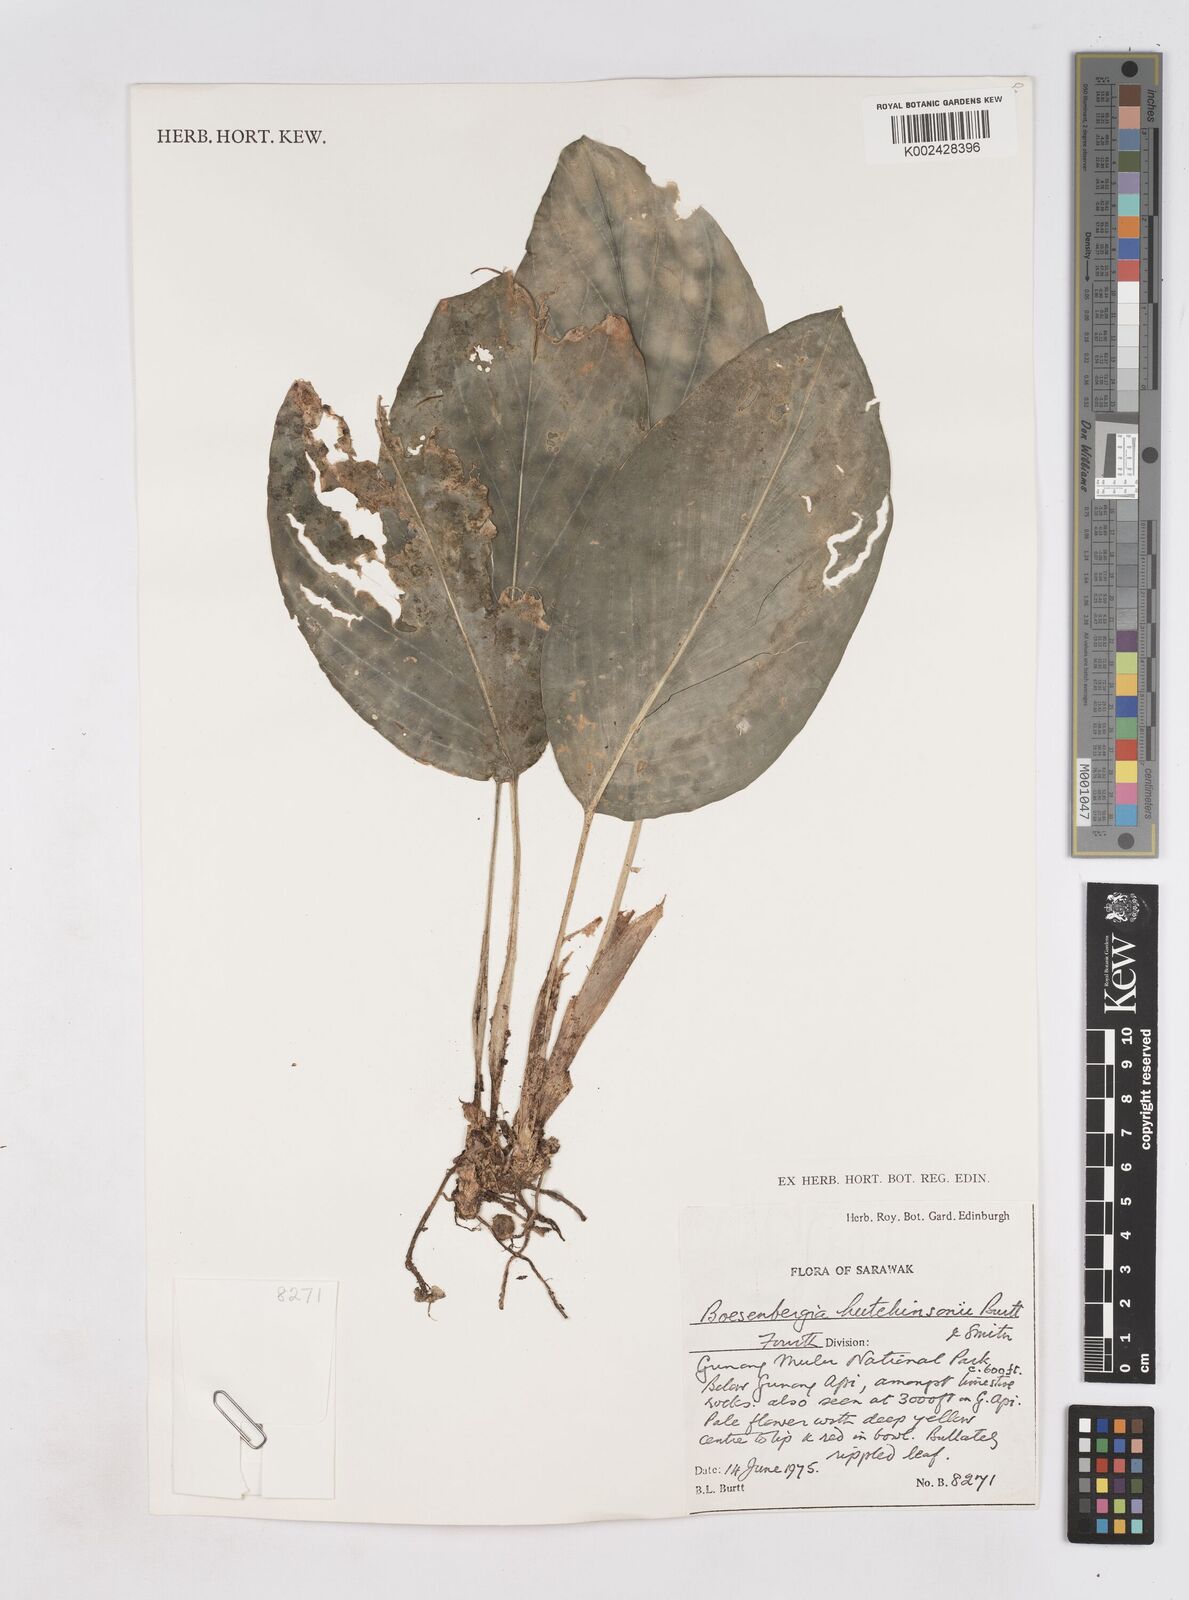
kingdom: Plantae
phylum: Tracheophyta
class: Liliopsida
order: Zingiberales
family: Zingiberaceae
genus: Boesenbergia
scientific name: Boesenbergia hutchinsonii
